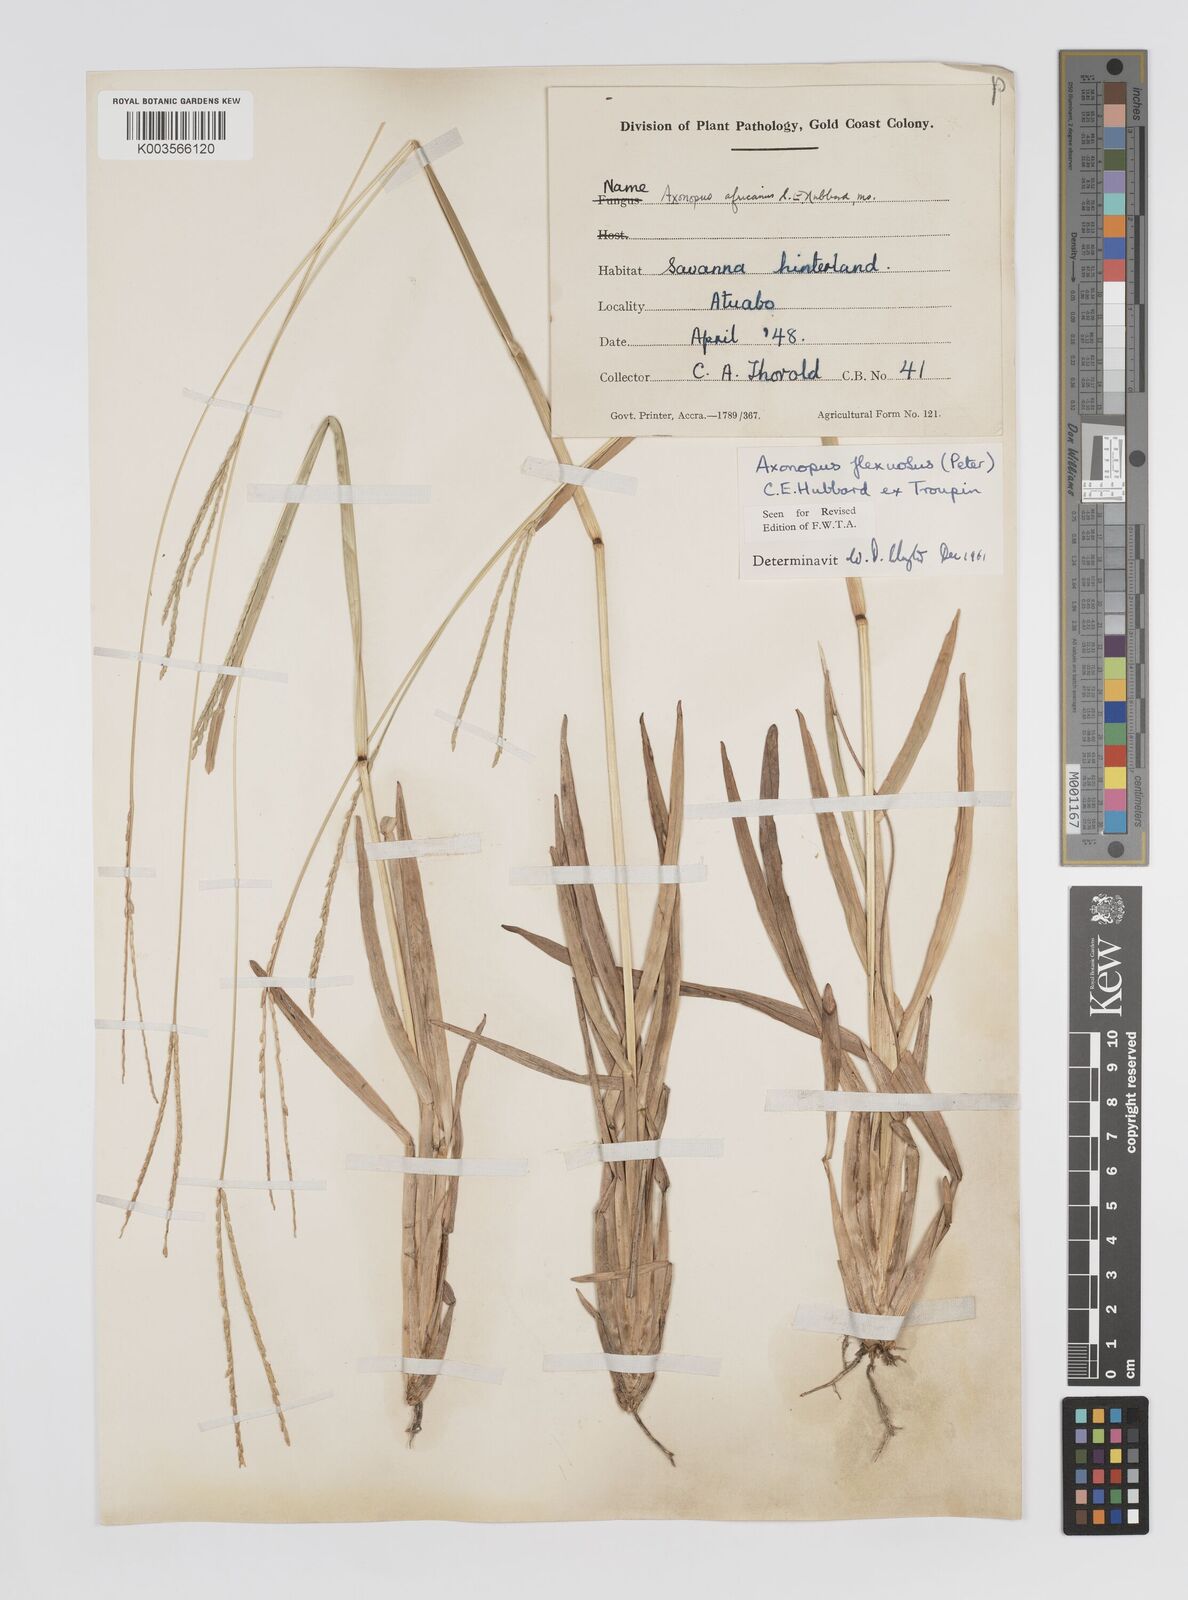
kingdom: Plantae
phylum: Tracheophyta
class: Liliopsida
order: Poales
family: Poaceae
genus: Axonopus
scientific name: Axonopus flexuosus
